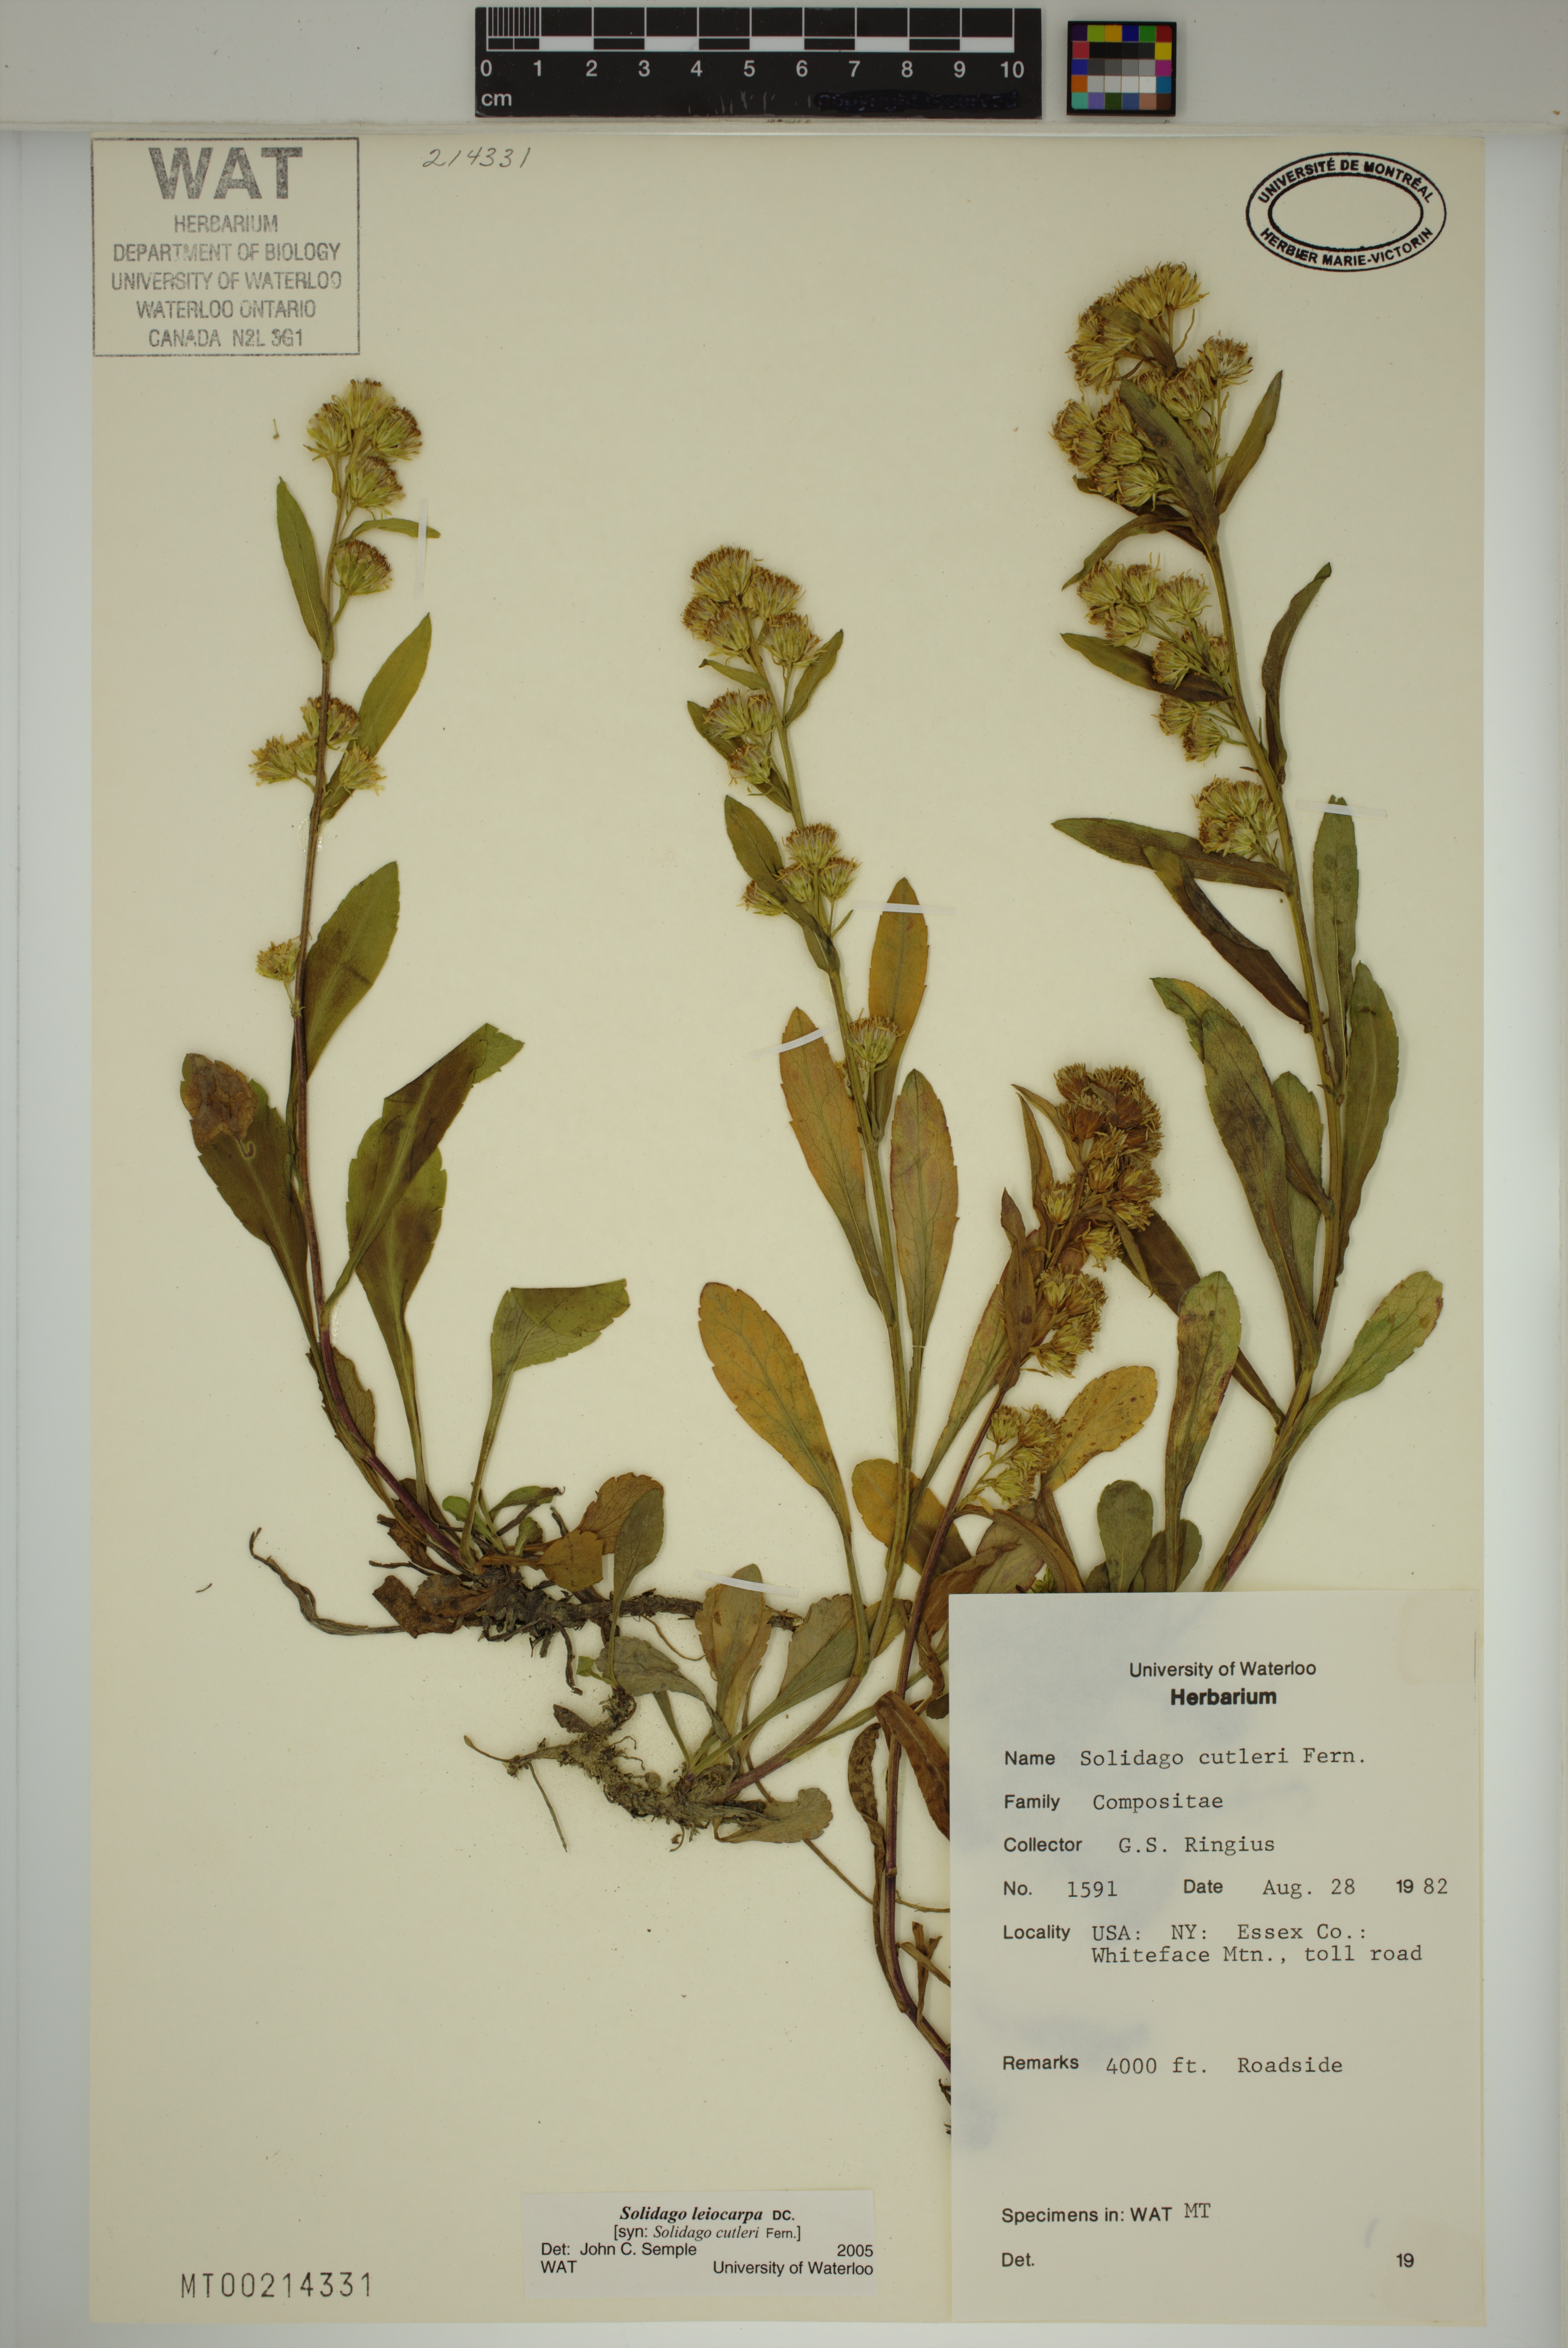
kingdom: Plantae
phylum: Tracheophyta
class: Magnoliopsida
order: Asterales
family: Asteraceae
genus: Solidago
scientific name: Solidago leiocarpa
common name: Cutler's alpine goldenrod
